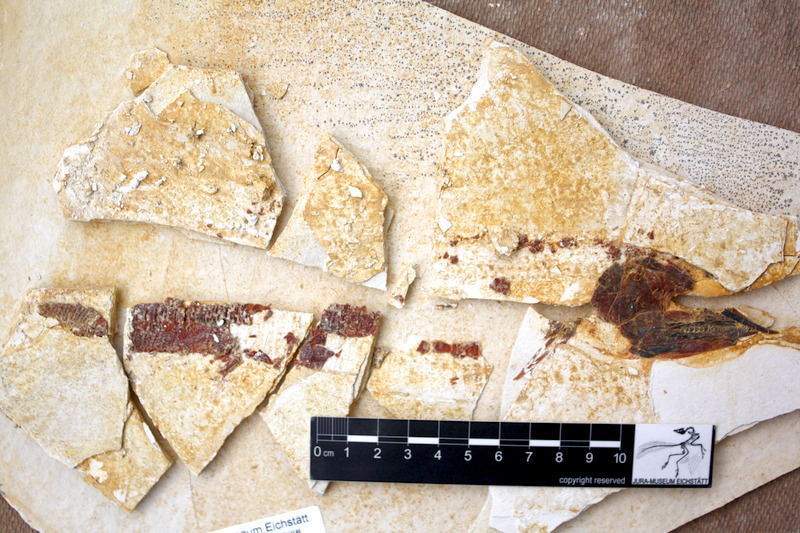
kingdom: Animalia
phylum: Chordata
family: Aspidorhynchidae
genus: Aspidorhynchus
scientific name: Aspidorhynchus sanzenbacheri
